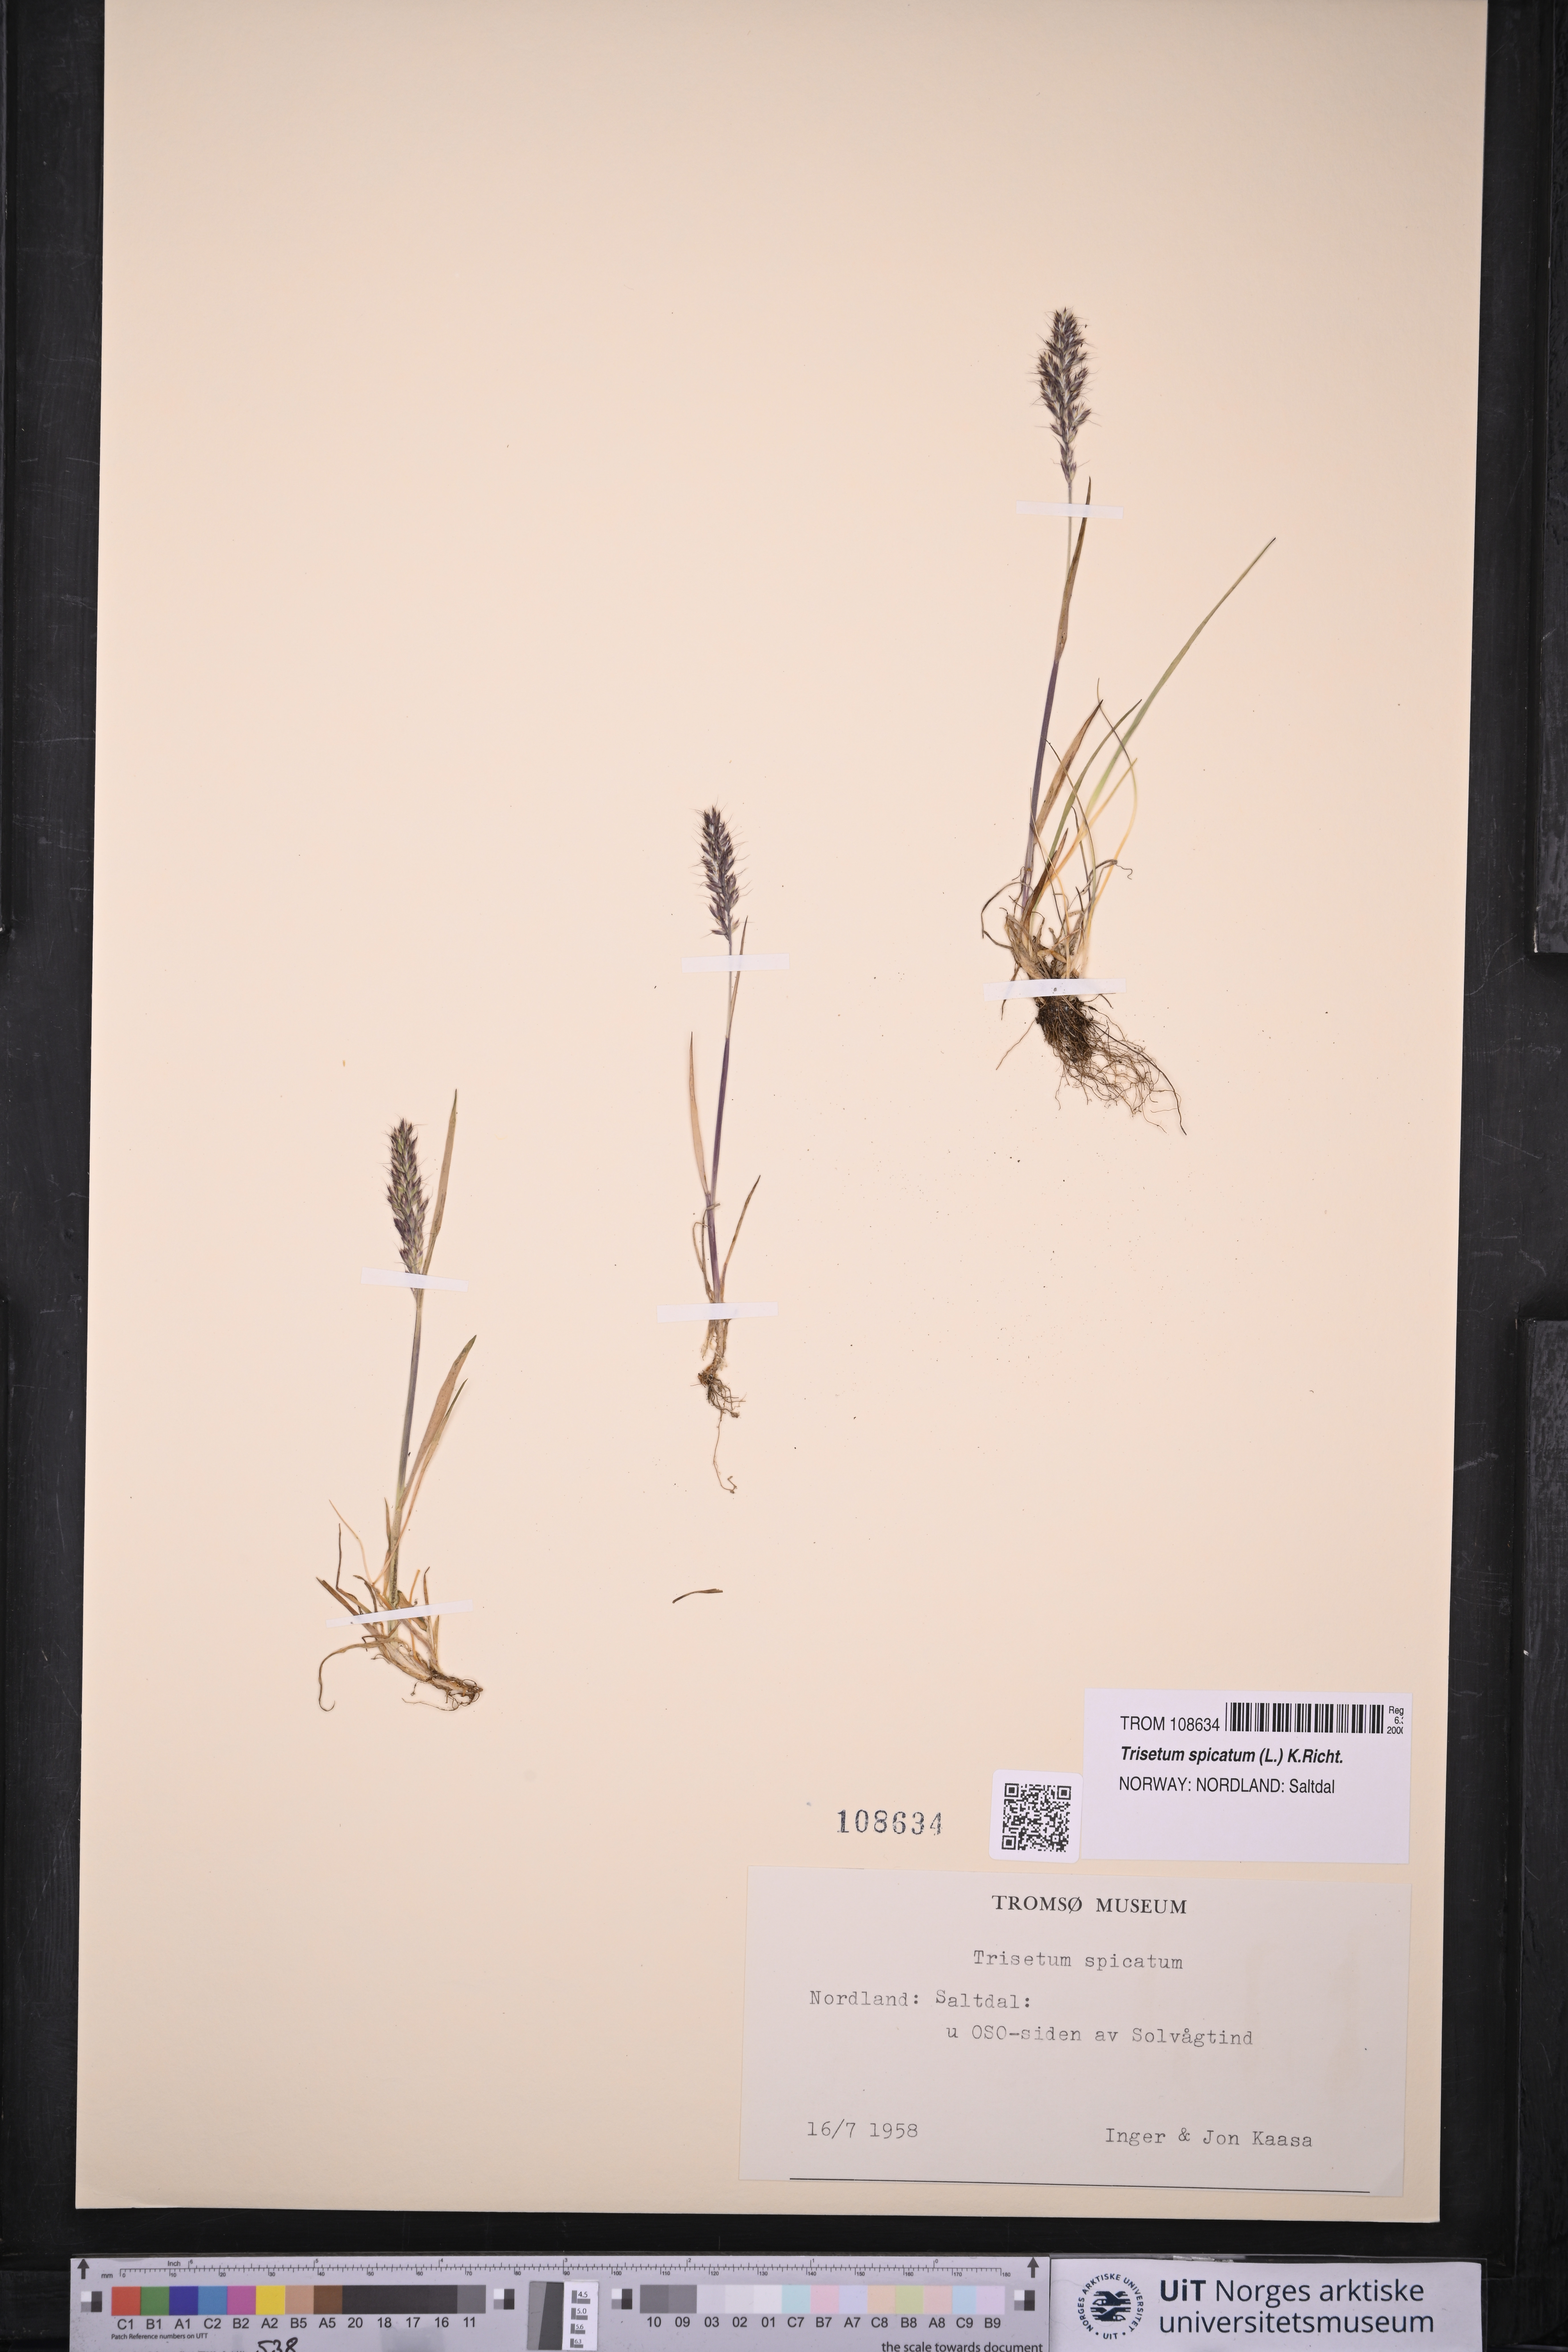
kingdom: Plantae
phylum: Tracheophyta
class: Liliopsida
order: Poales
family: Poaceae
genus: Koeleria
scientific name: Koeleria spicata
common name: Mountain trisetum
